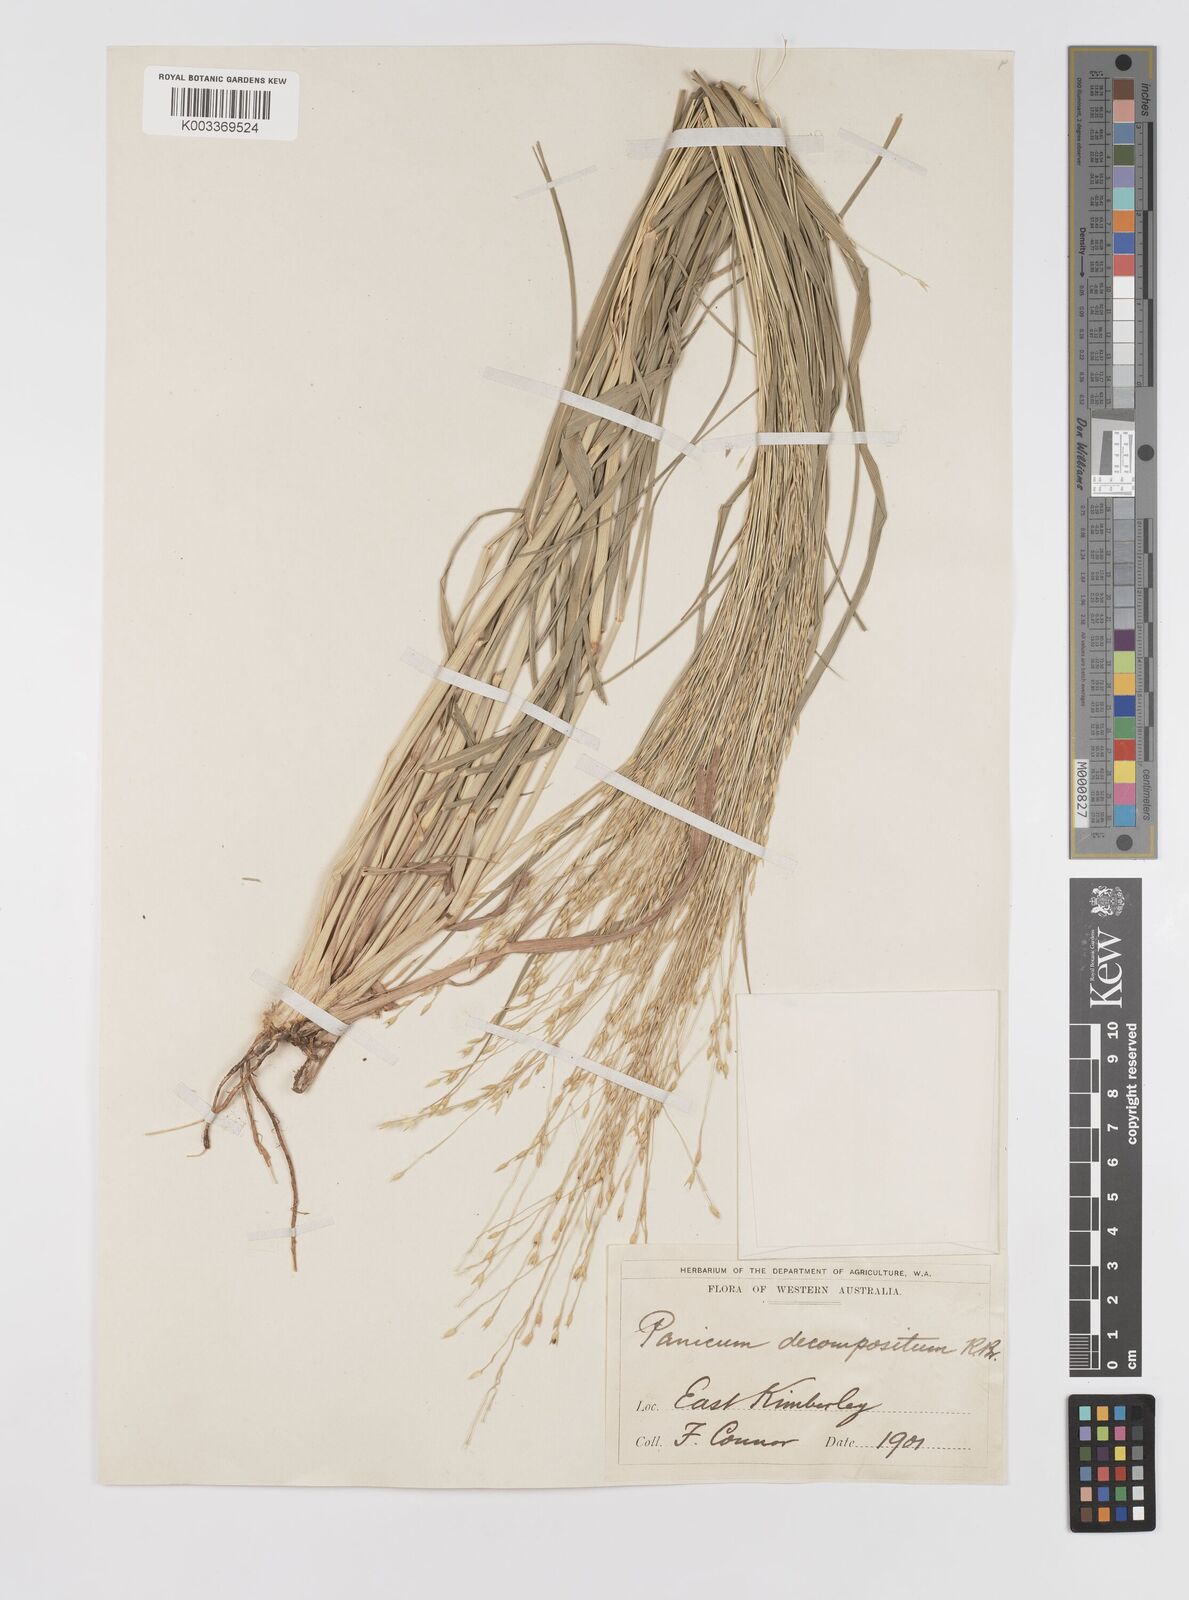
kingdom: Plantae
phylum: Tracheophyta
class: Liliopsida
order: Poales
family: Poaceae
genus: Panicum
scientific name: Panicum decompositum
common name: Australian millet
